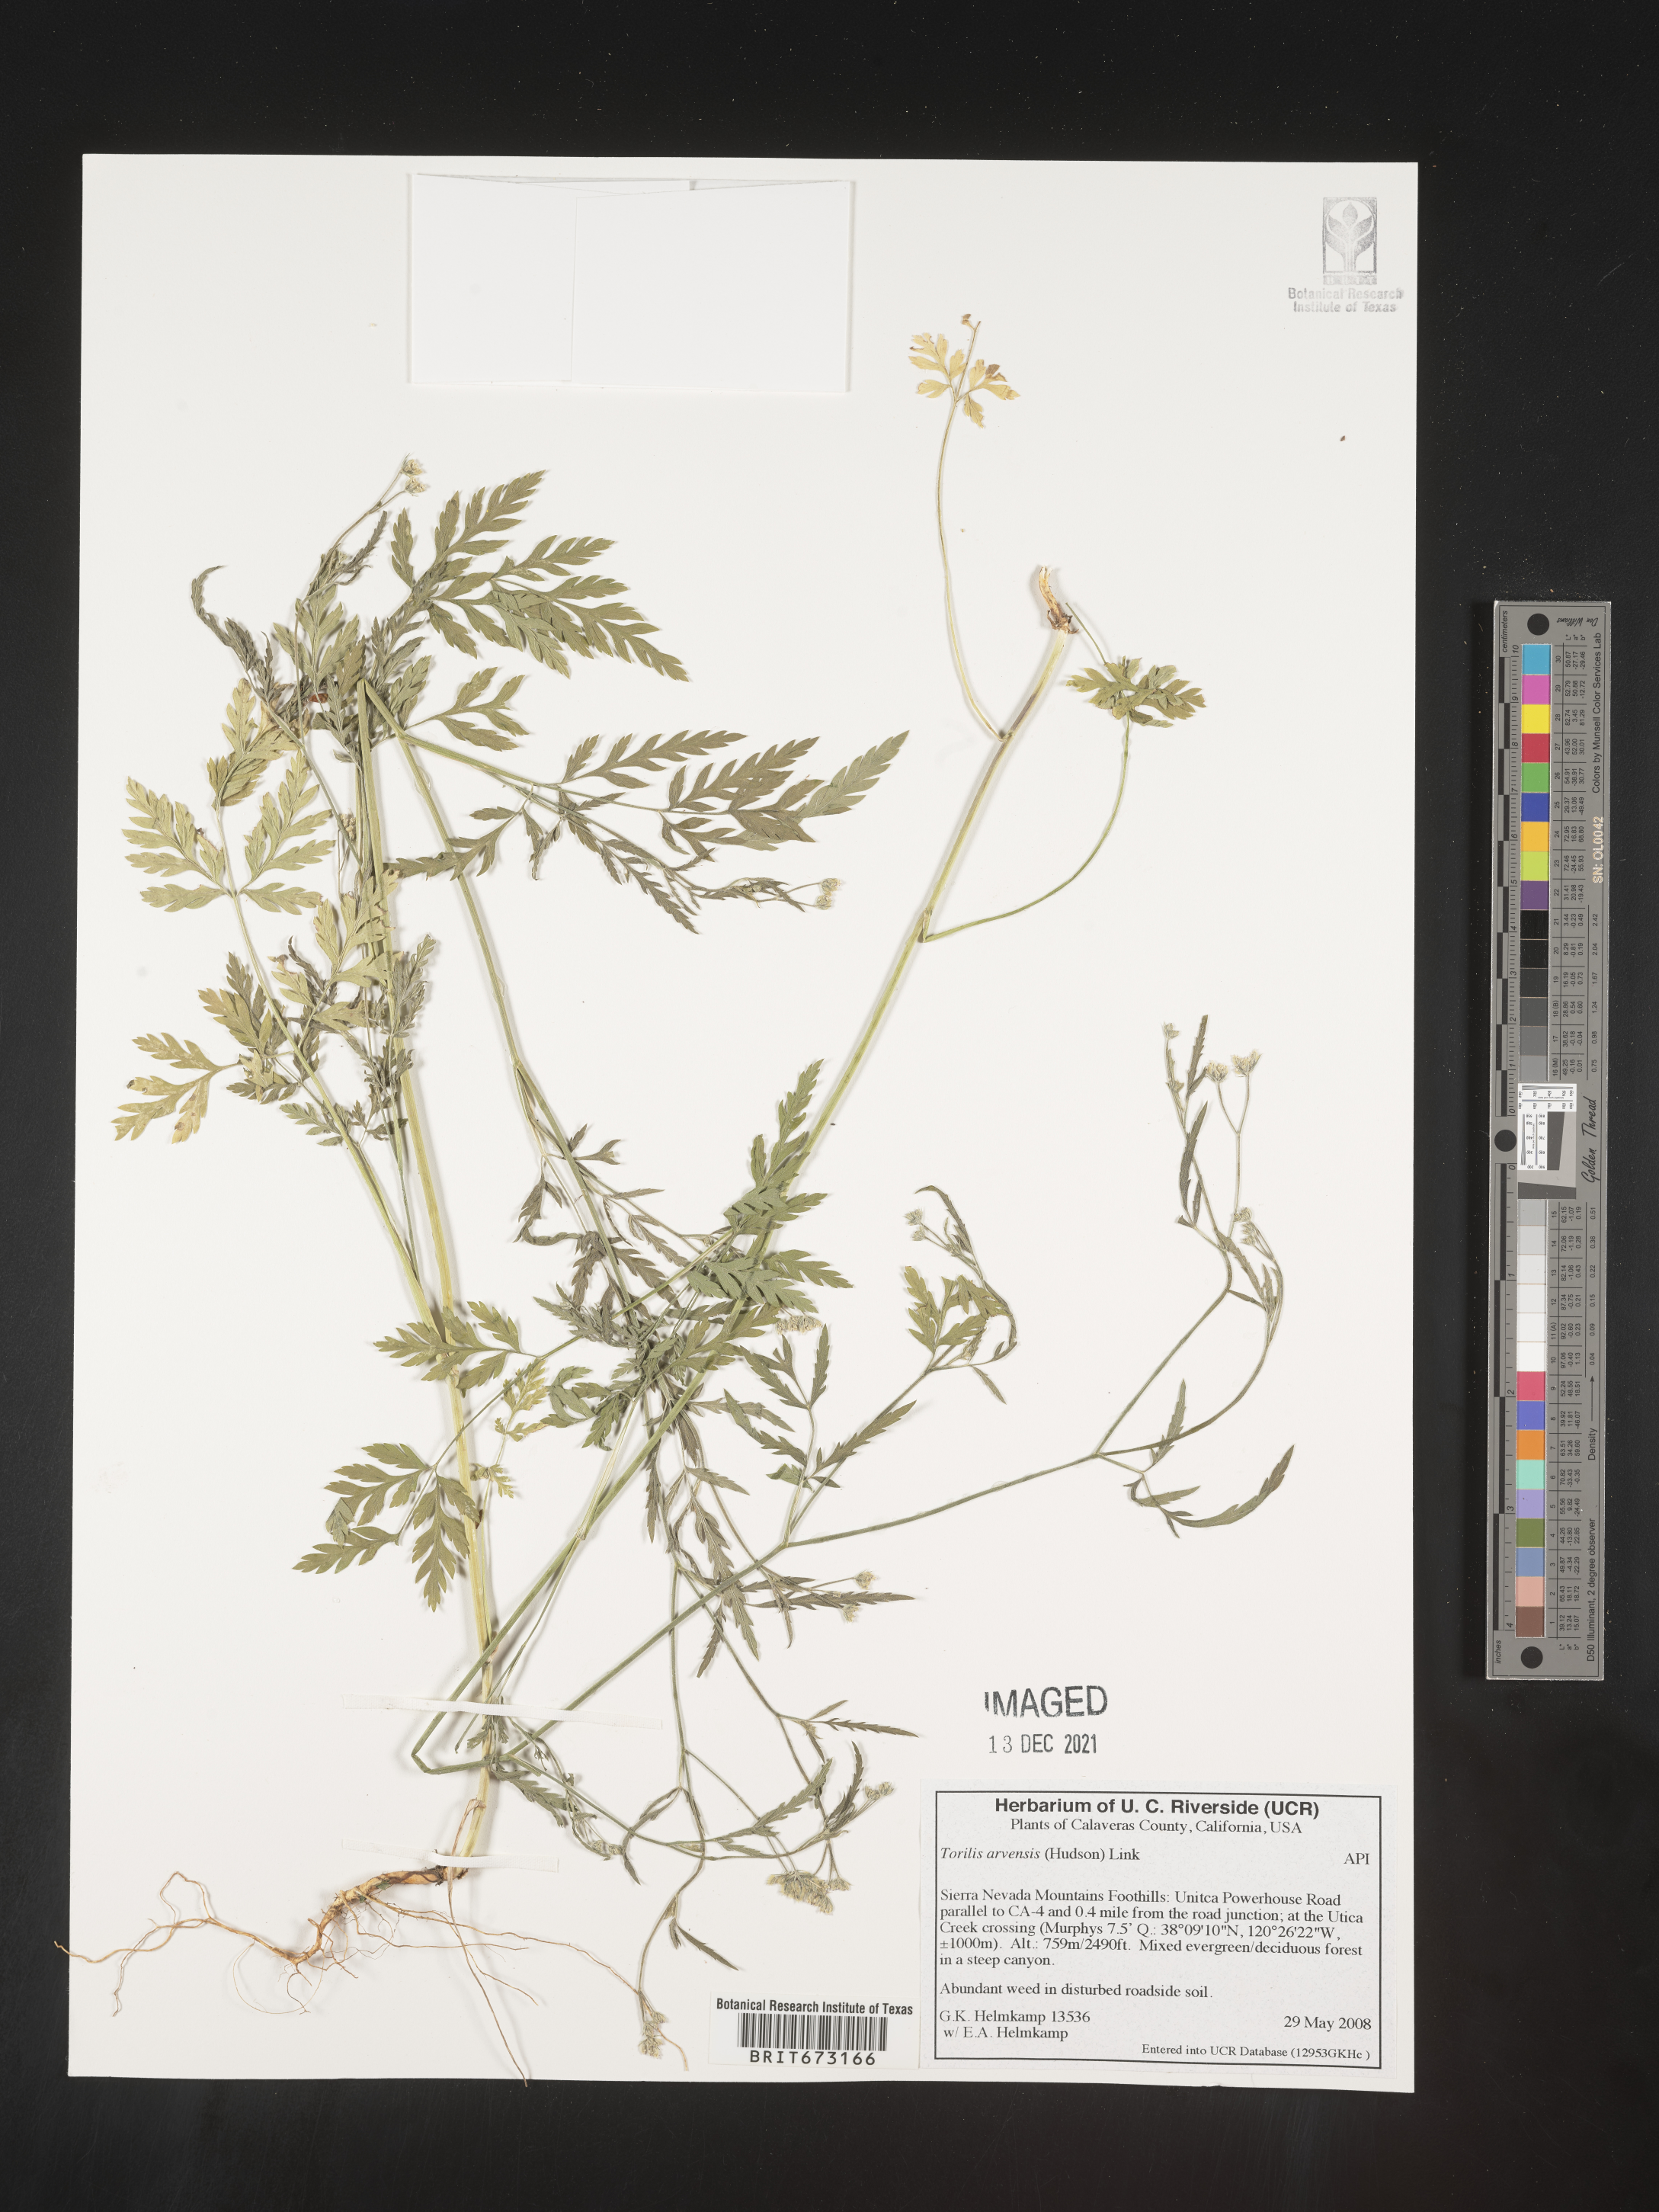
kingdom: Plantae
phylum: Tracheophyta
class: Magnoliopsida
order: Apiales
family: Apiaceae
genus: Torilis
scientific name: Torilis arvensis
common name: Spreading hedge-parsley
